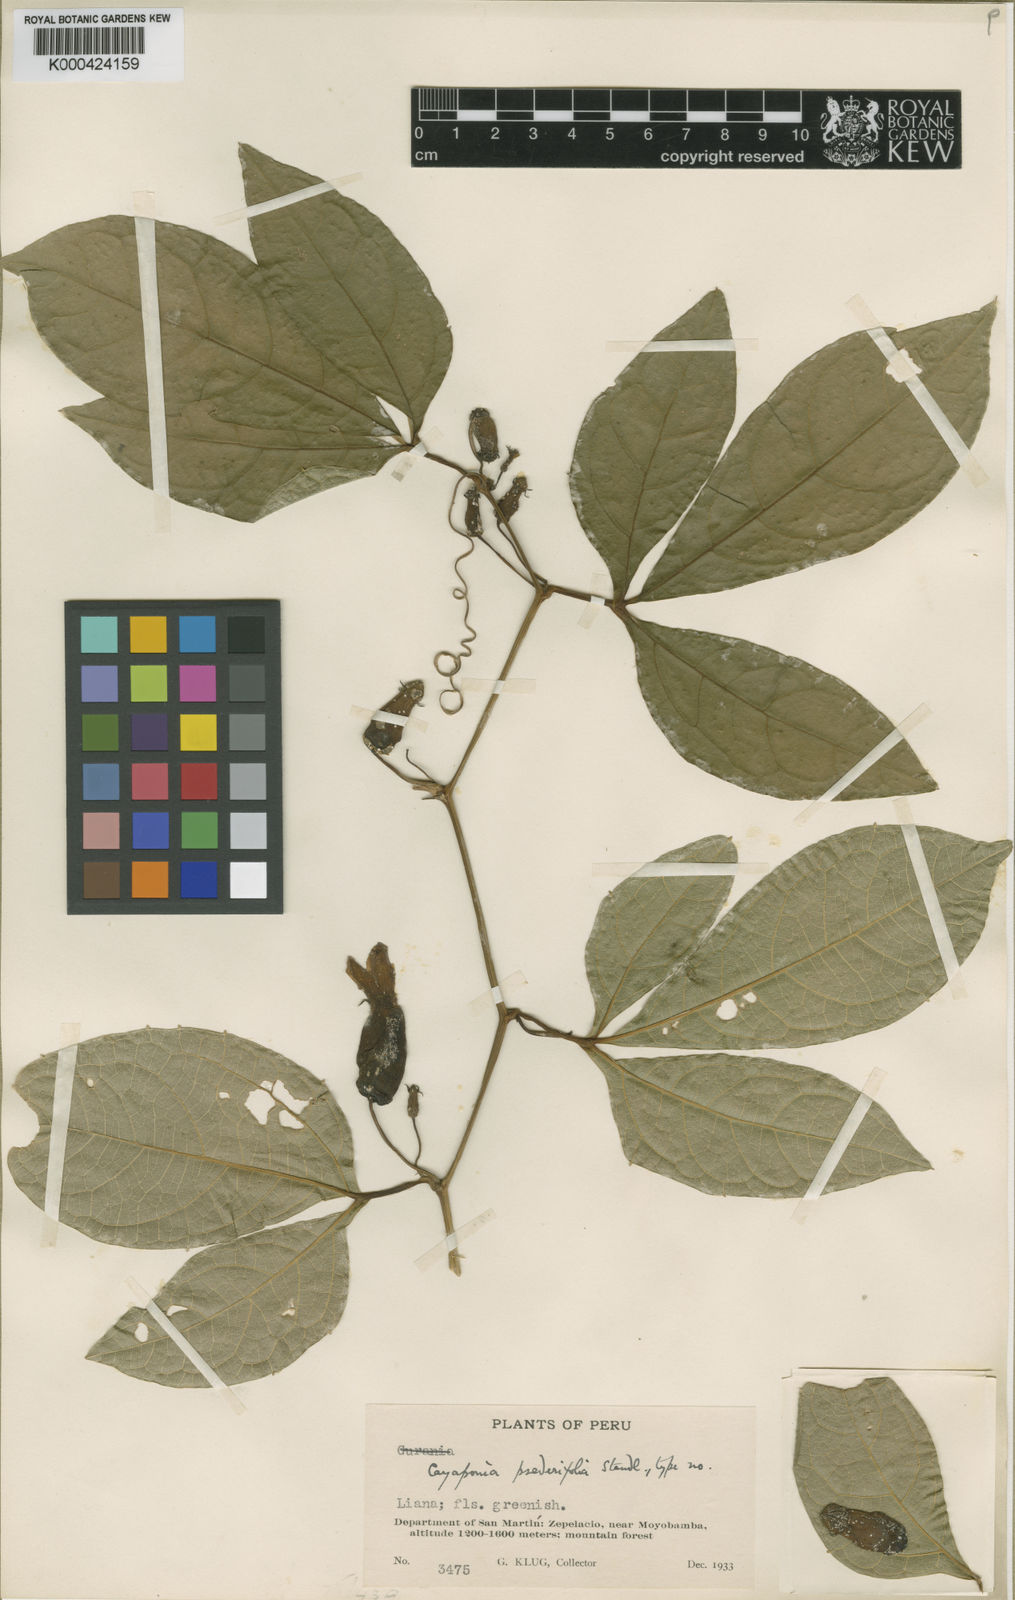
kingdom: Plantae
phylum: Tracheophyta
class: Magnoliopsida
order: Cucurbitales
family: Cucurbitaceae
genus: Cayaponia
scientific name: Cayaponia tubulosa
